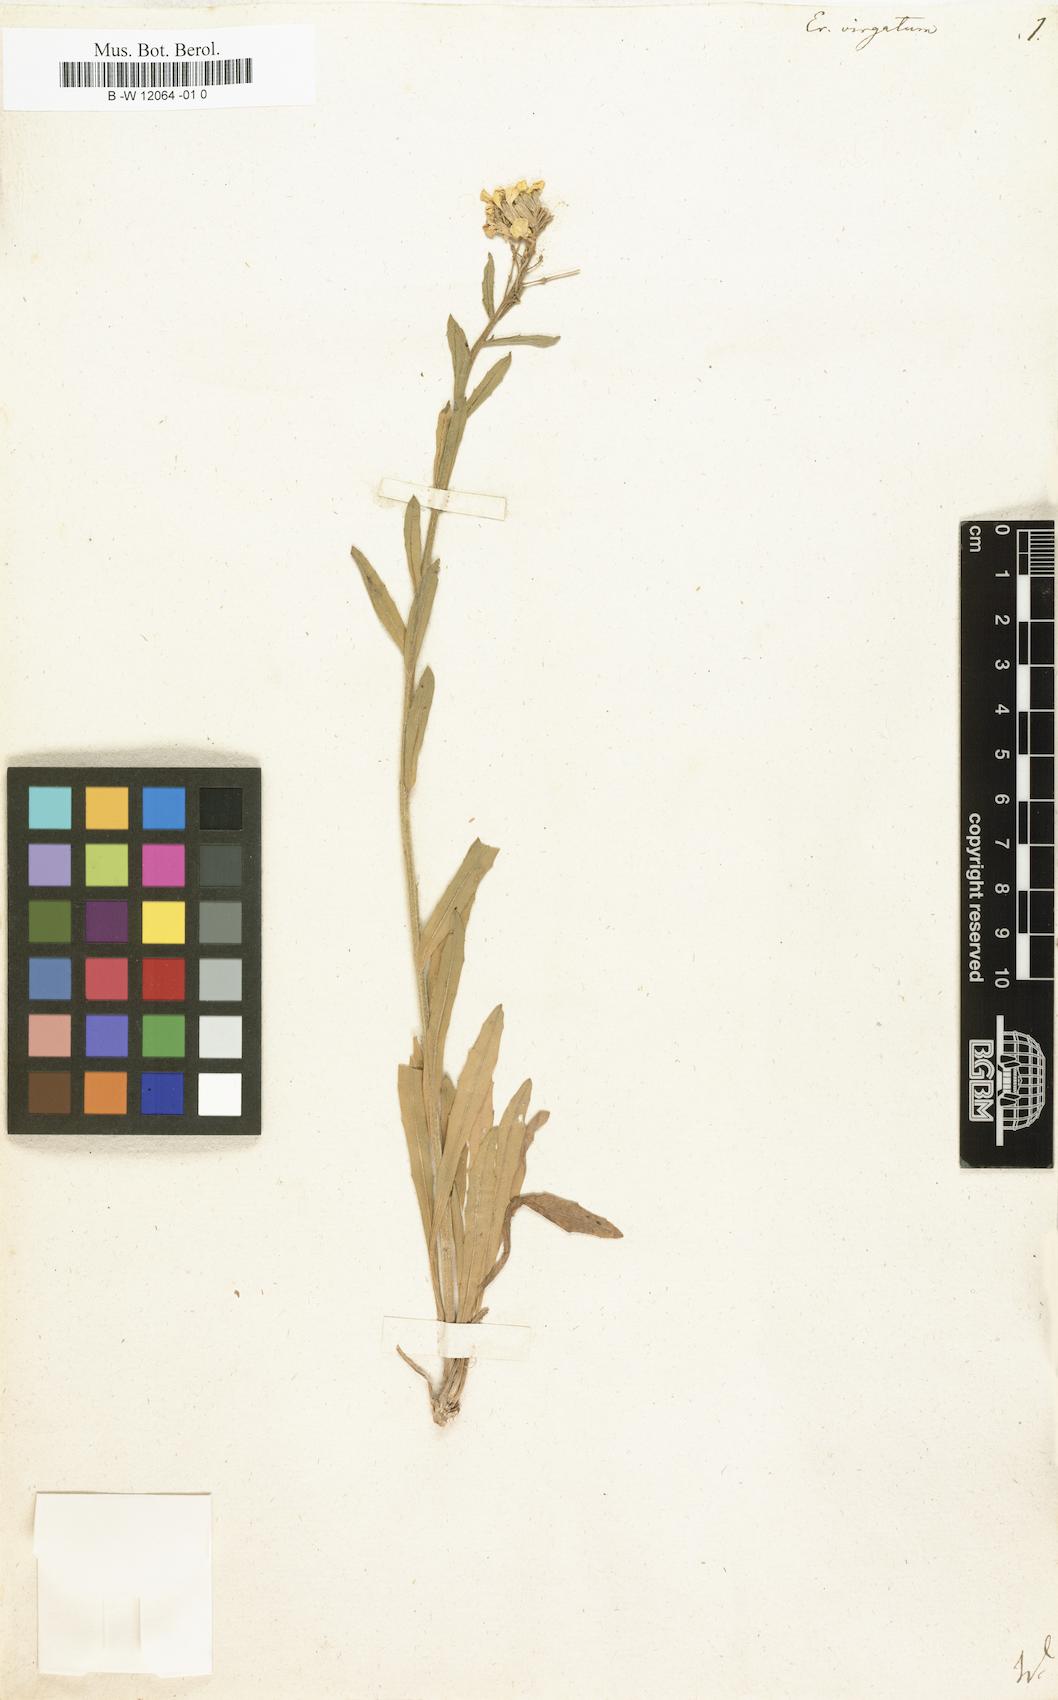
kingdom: Plantae
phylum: Tracheophyta
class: Magnoliopsida
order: Brassicales
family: Brassicaceae
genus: Erysimum
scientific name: Erysimum virgatum
